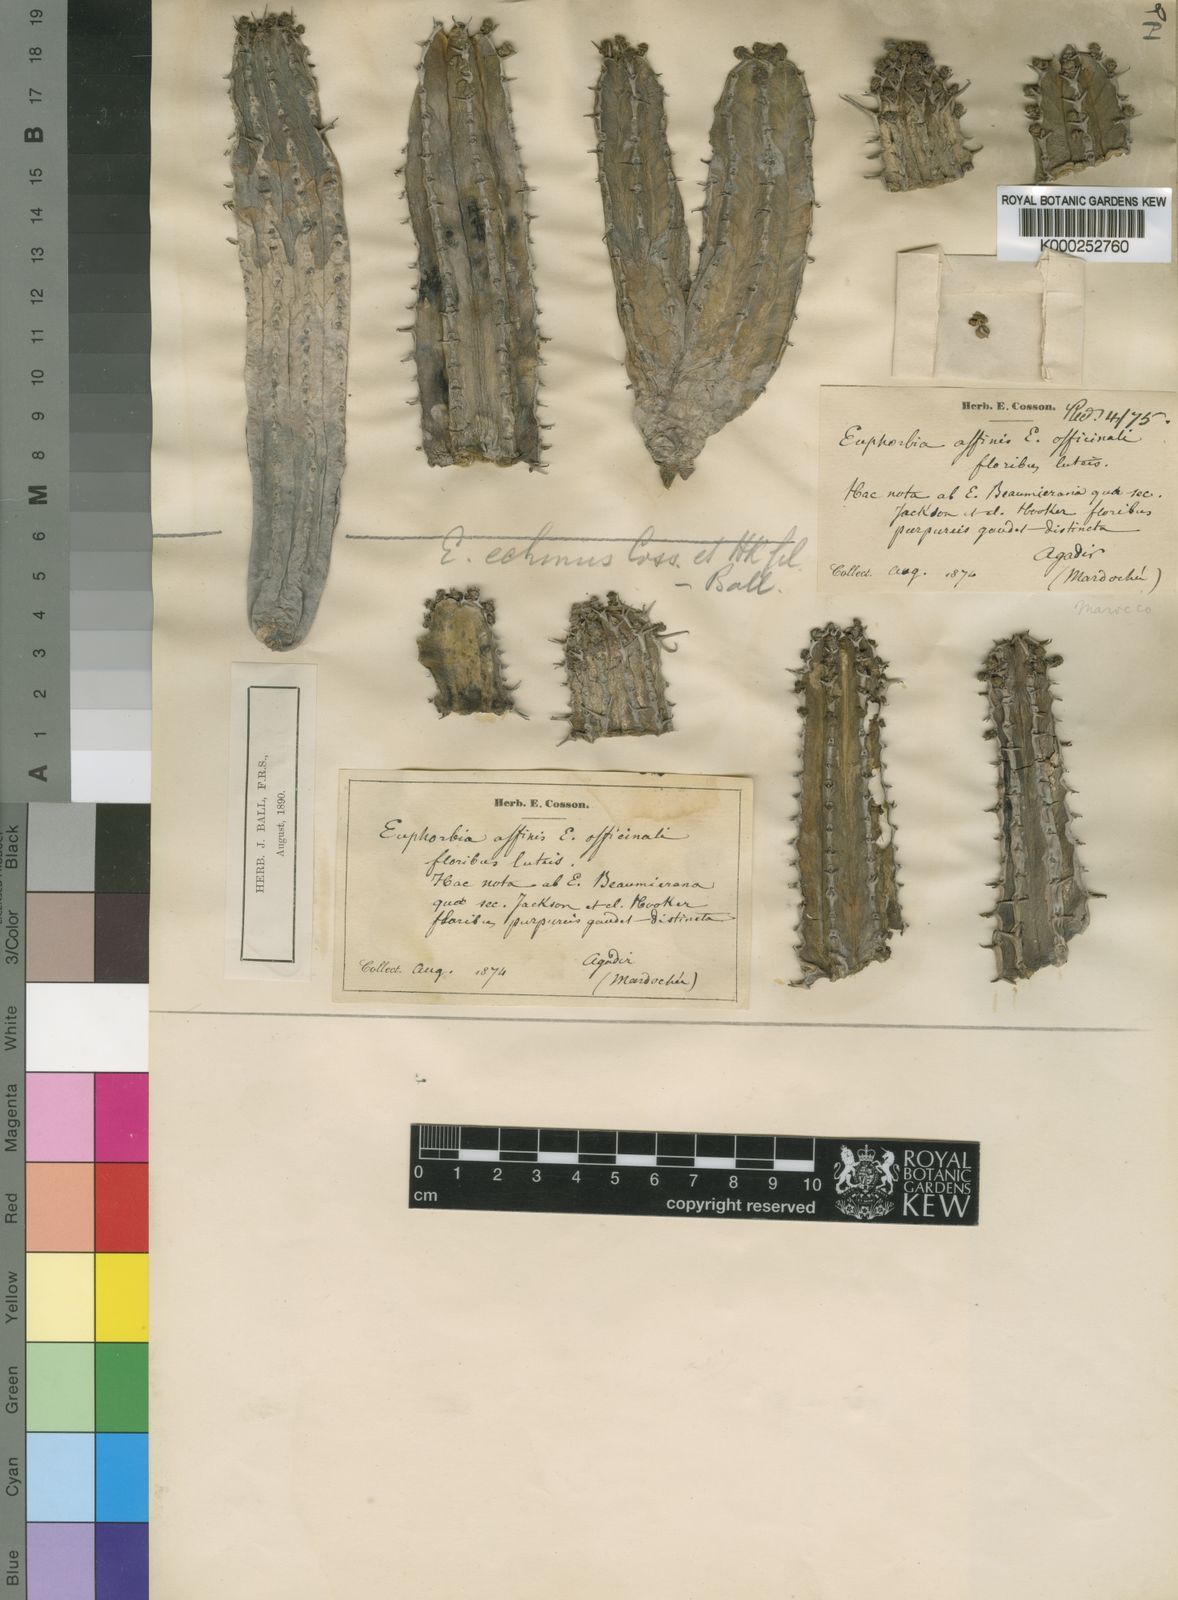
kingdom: Plantae
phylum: Tracheophyta
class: Magnoliopsida
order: Malpighiales
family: Euphorbiaceae
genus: Euphorbia
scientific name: Euphorbia officinarum
